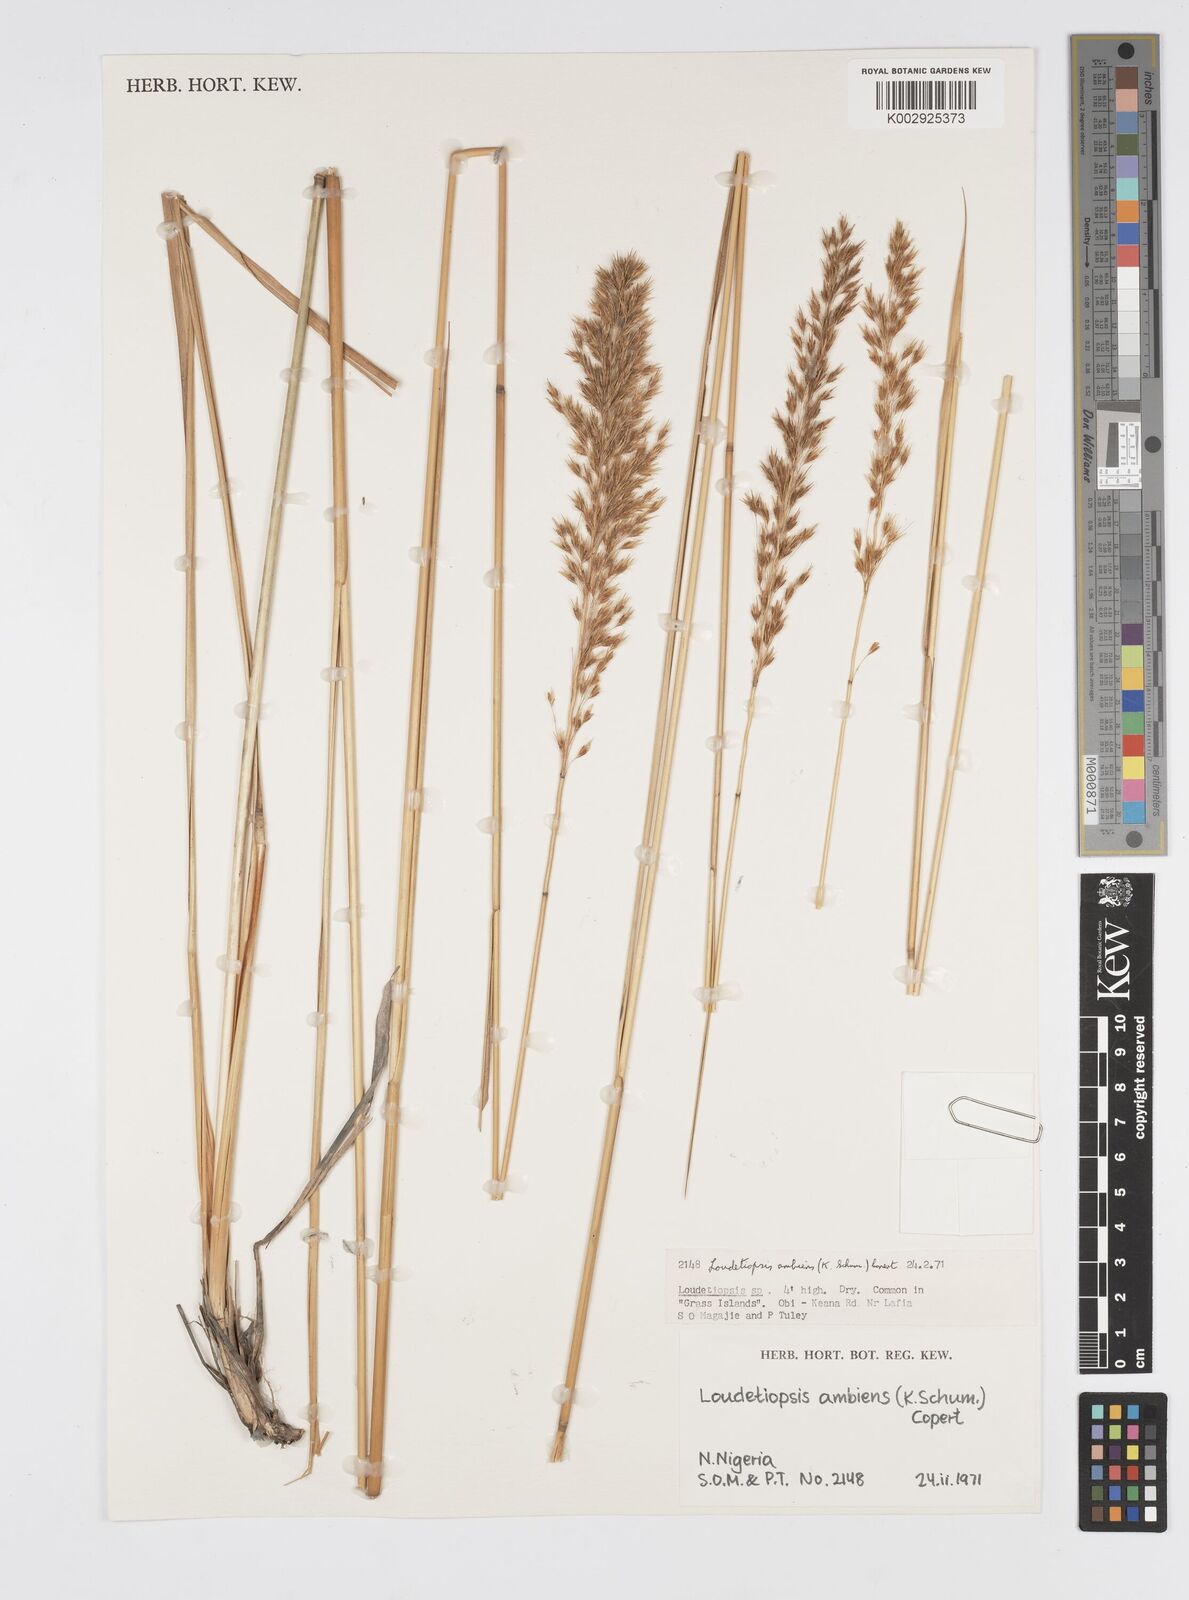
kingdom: Plantae
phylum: Tracheophyta
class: Liliopsida
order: Poales
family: Poaceae
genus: Loudetiopsis
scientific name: Loudetiopsis ambiens
